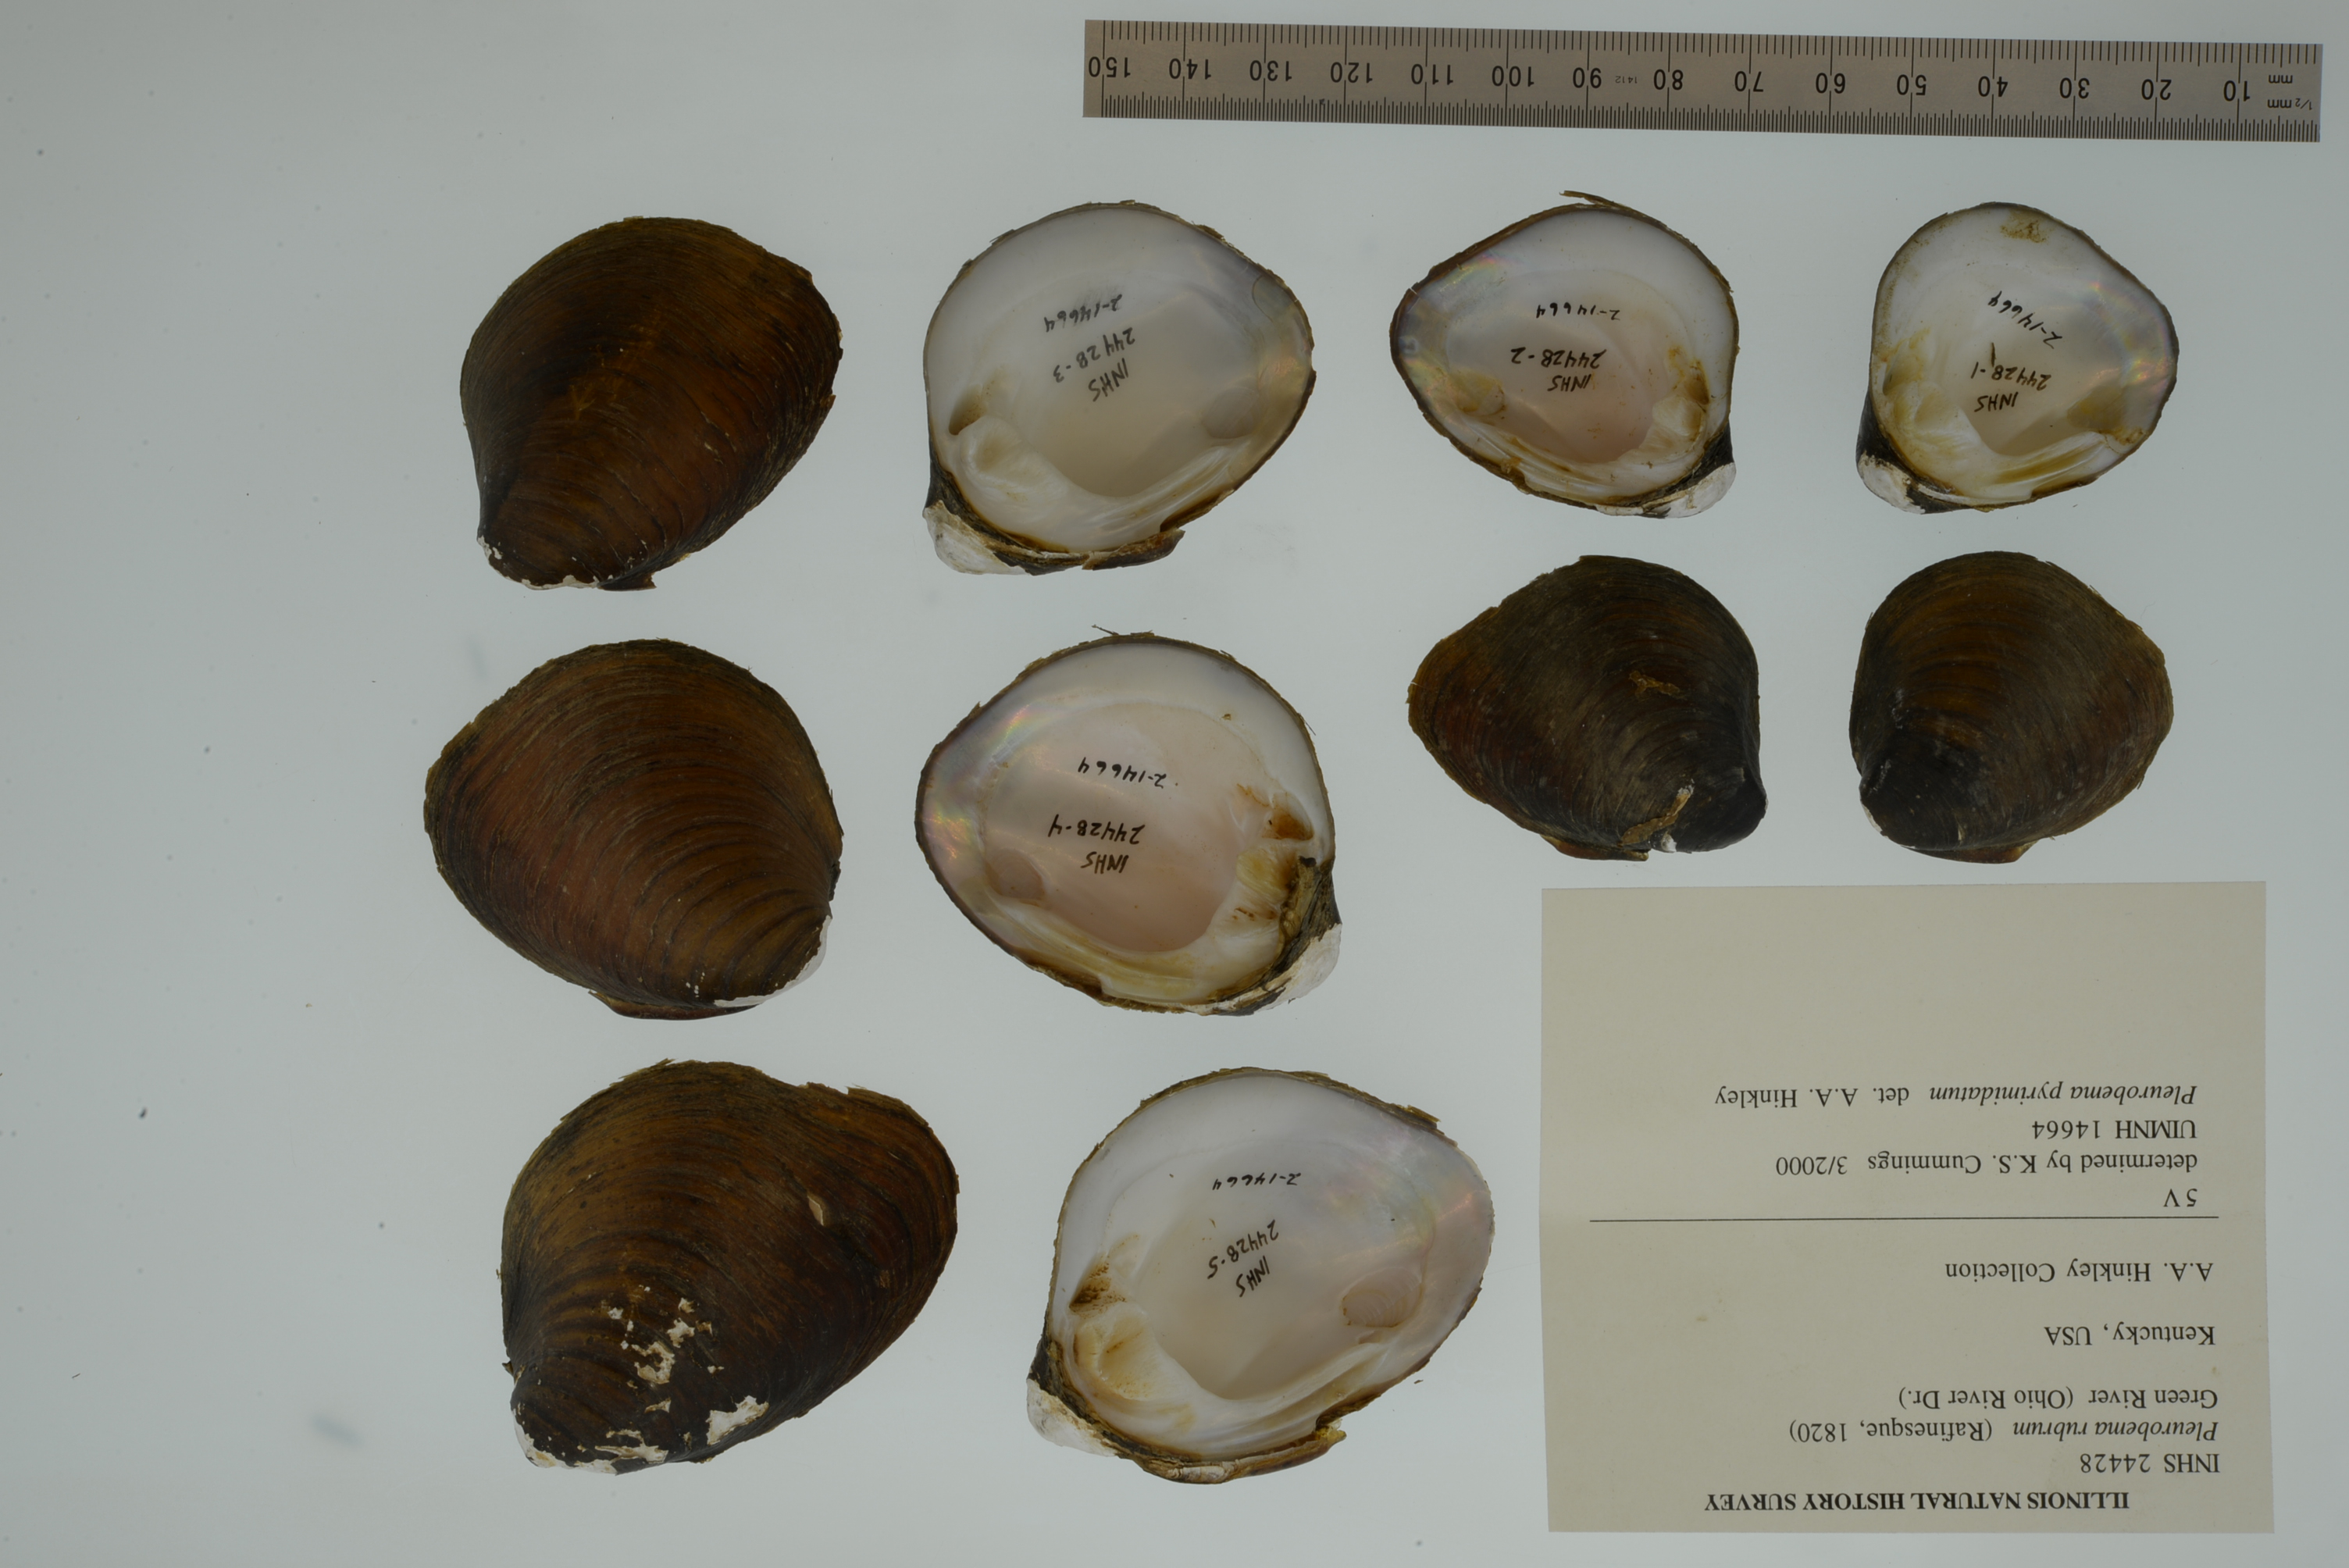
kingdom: Animalia
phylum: Mollusca
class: Bivalvia
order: Unionida
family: Unionidae
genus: Pleurobema
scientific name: Pleurobema rubrum
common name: Pyramid pigtoe
